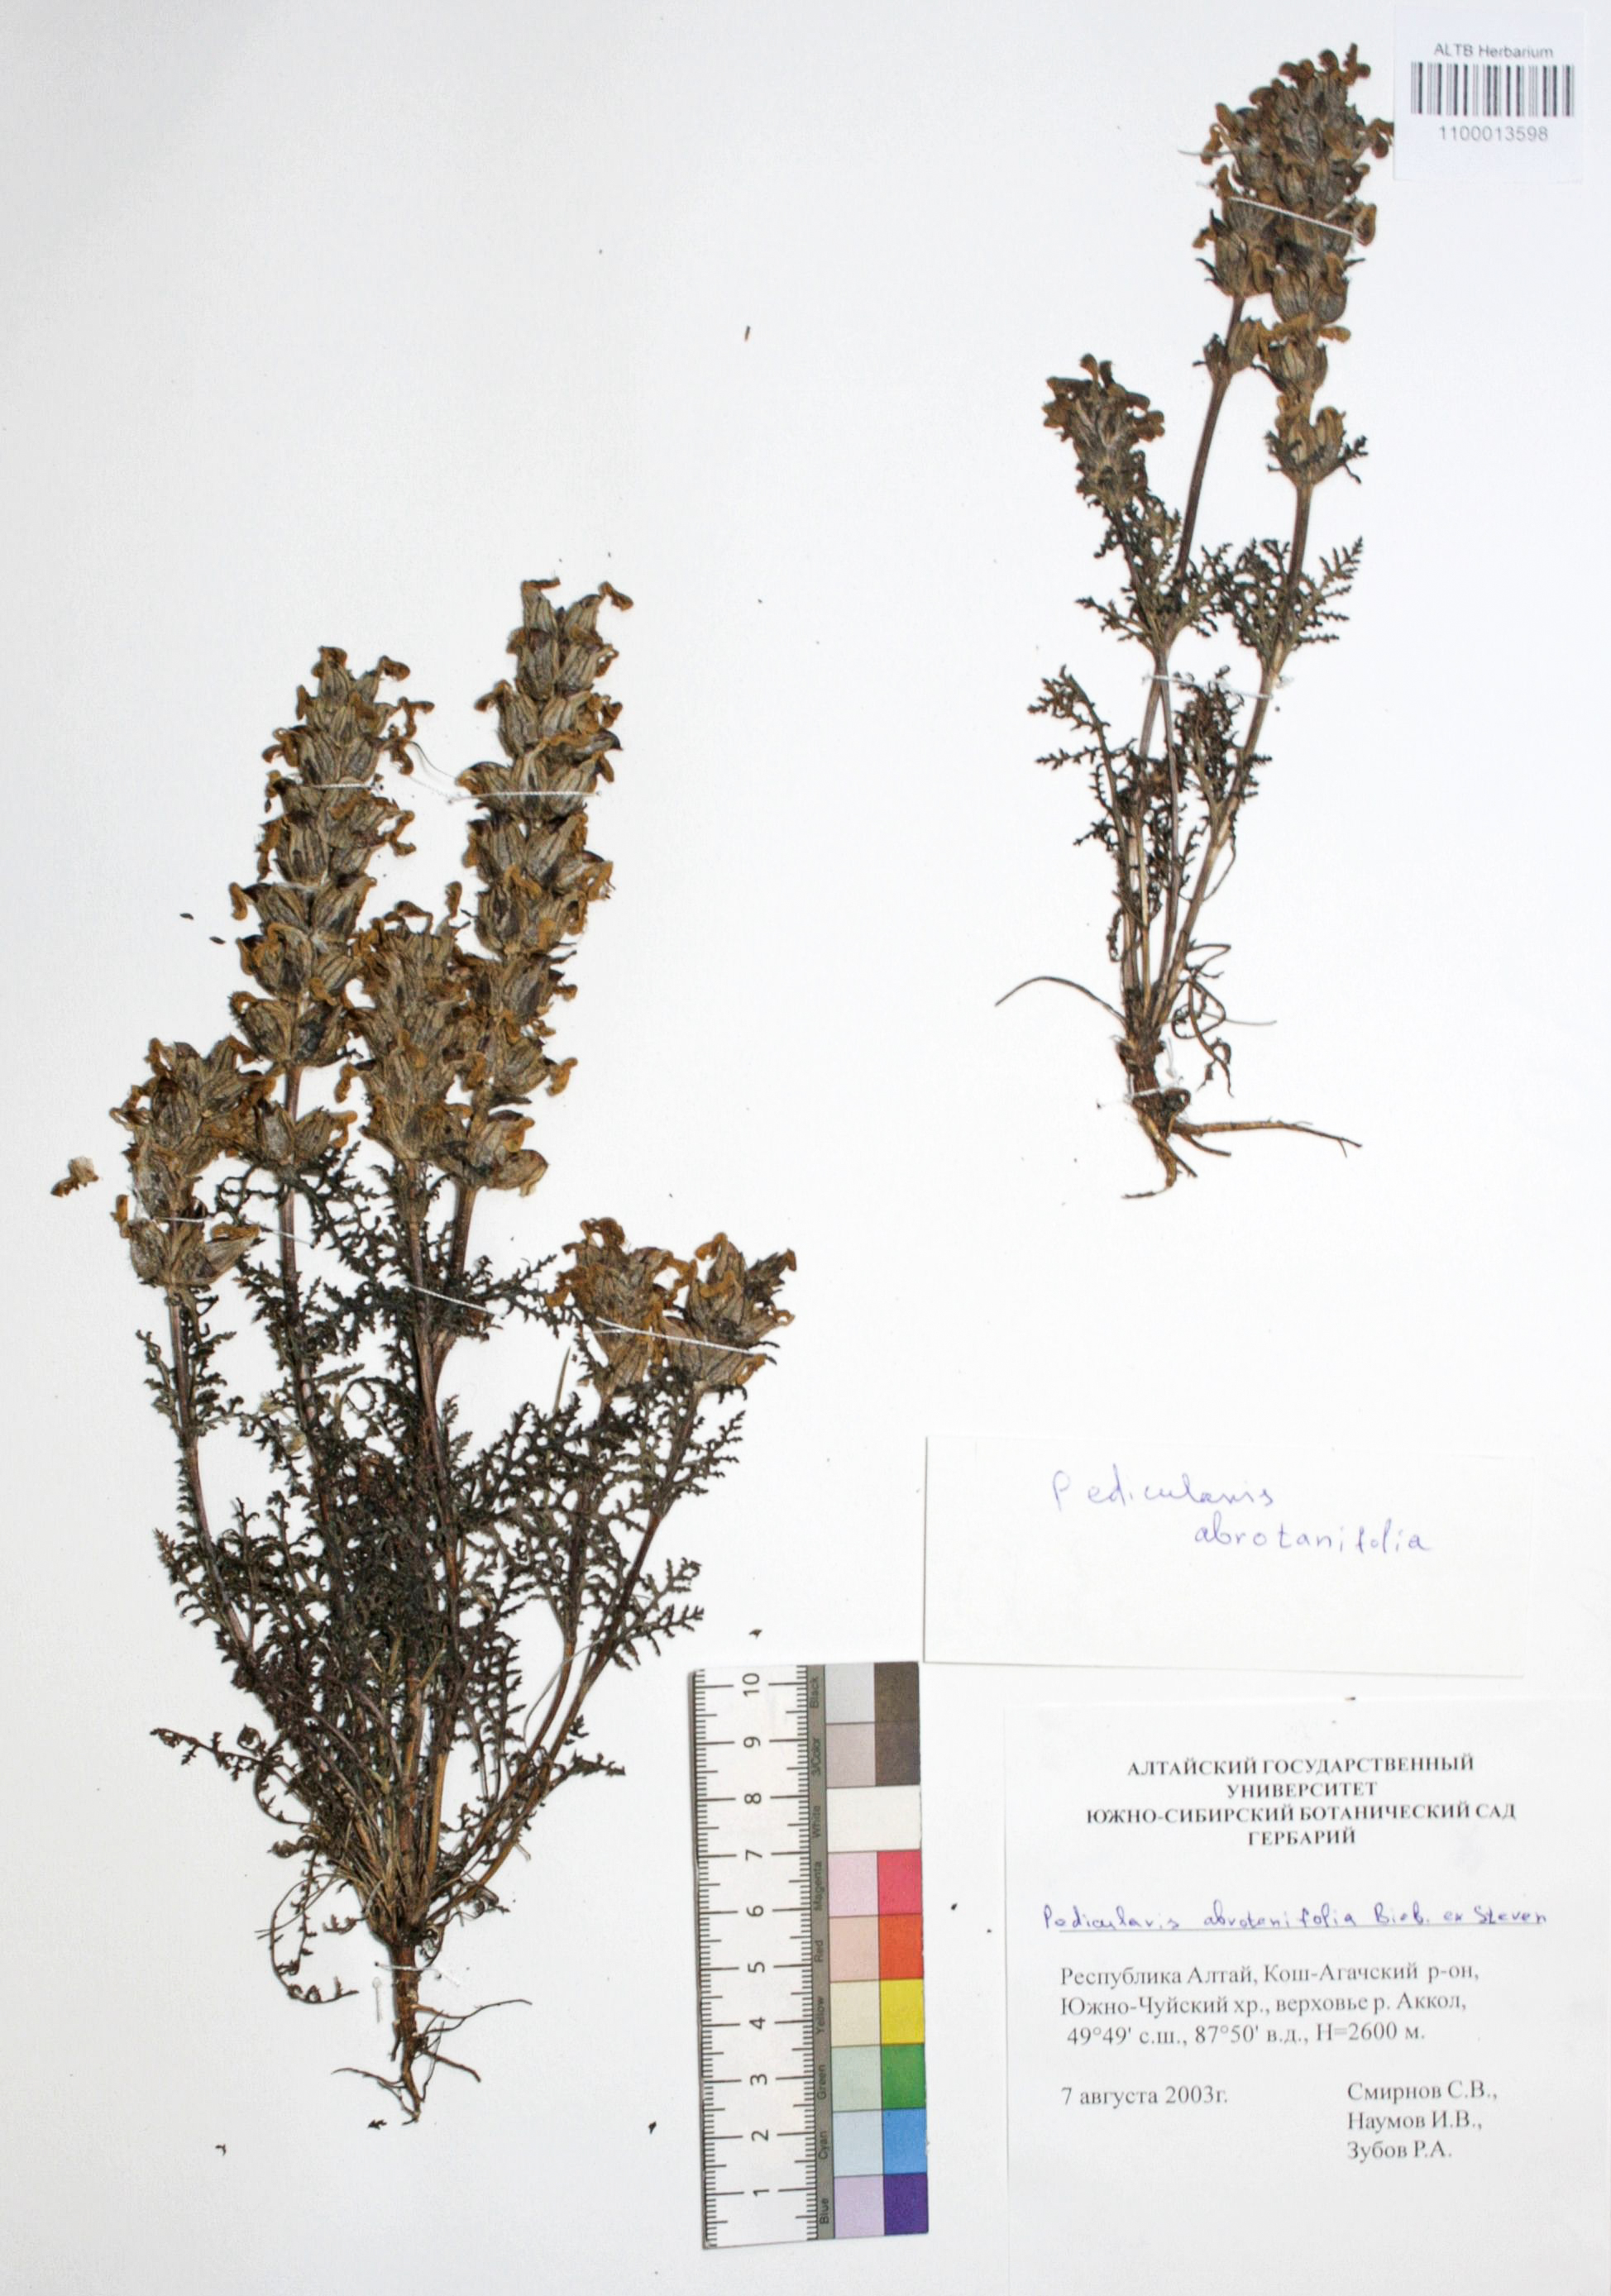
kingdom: Plantae
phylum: Tracheophyta
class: Magnoliopsida
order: Lamiales
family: Orobanchaceae
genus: Pedicularis
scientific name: Pedicularis abrotanifolia
